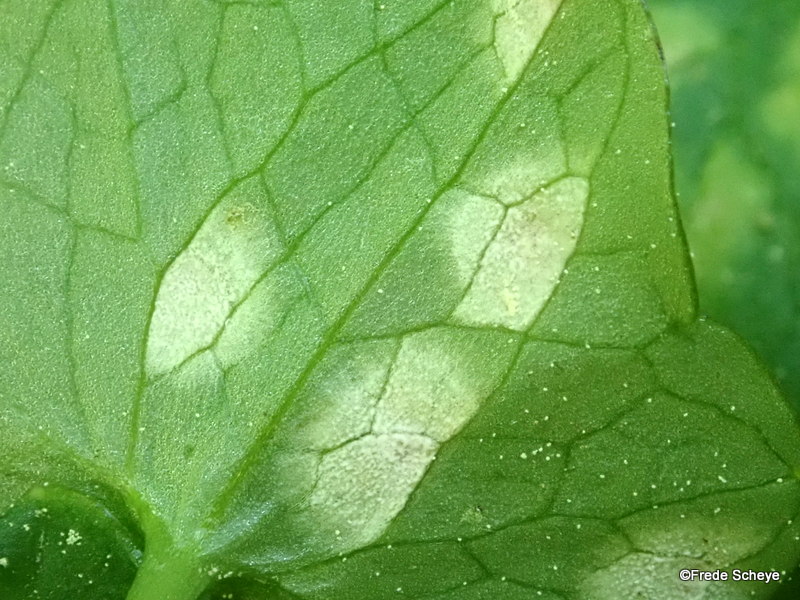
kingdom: Fungi
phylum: Basidiomycota
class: Exobasidiomycetes
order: Entylomatales
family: Entylomataceae
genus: Entyloma
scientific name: Entyloma ficariae
